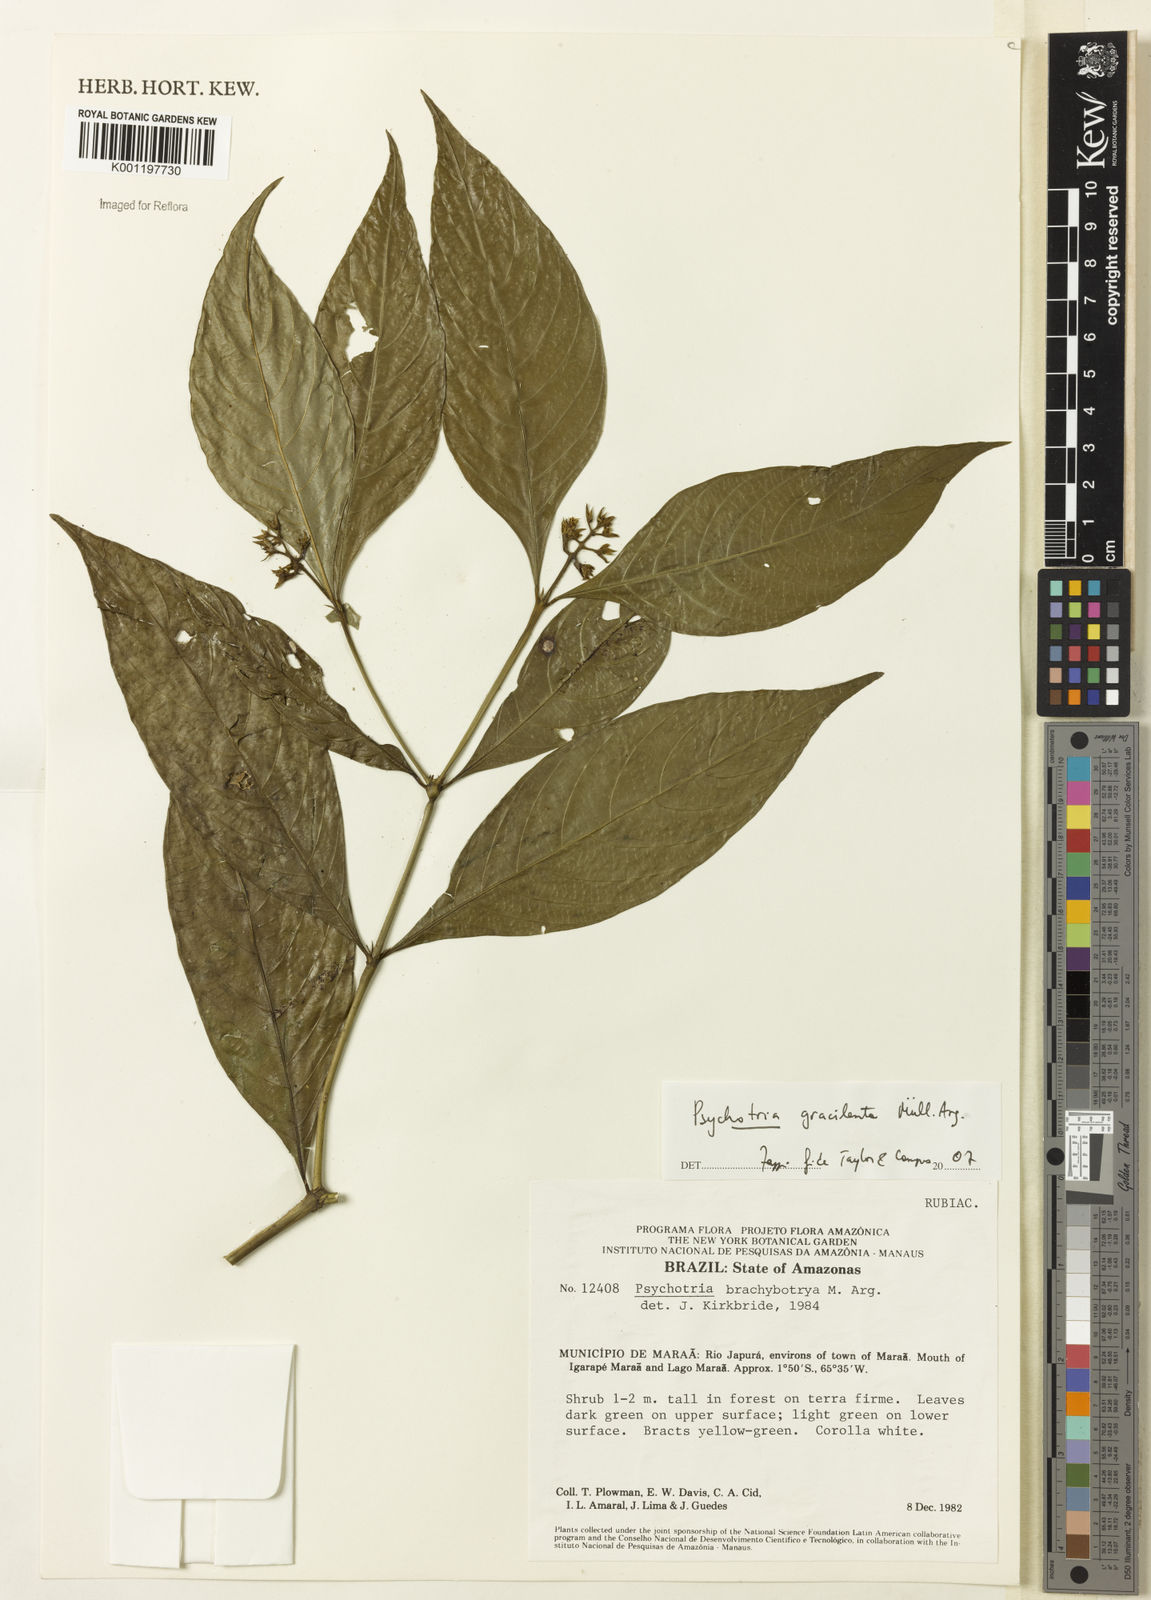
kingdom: Plantae
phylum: Tracheophyta
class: Magnoliopsida
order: Gentianales
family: Rubiaceae
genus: Psychotria
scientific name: Psychotria
